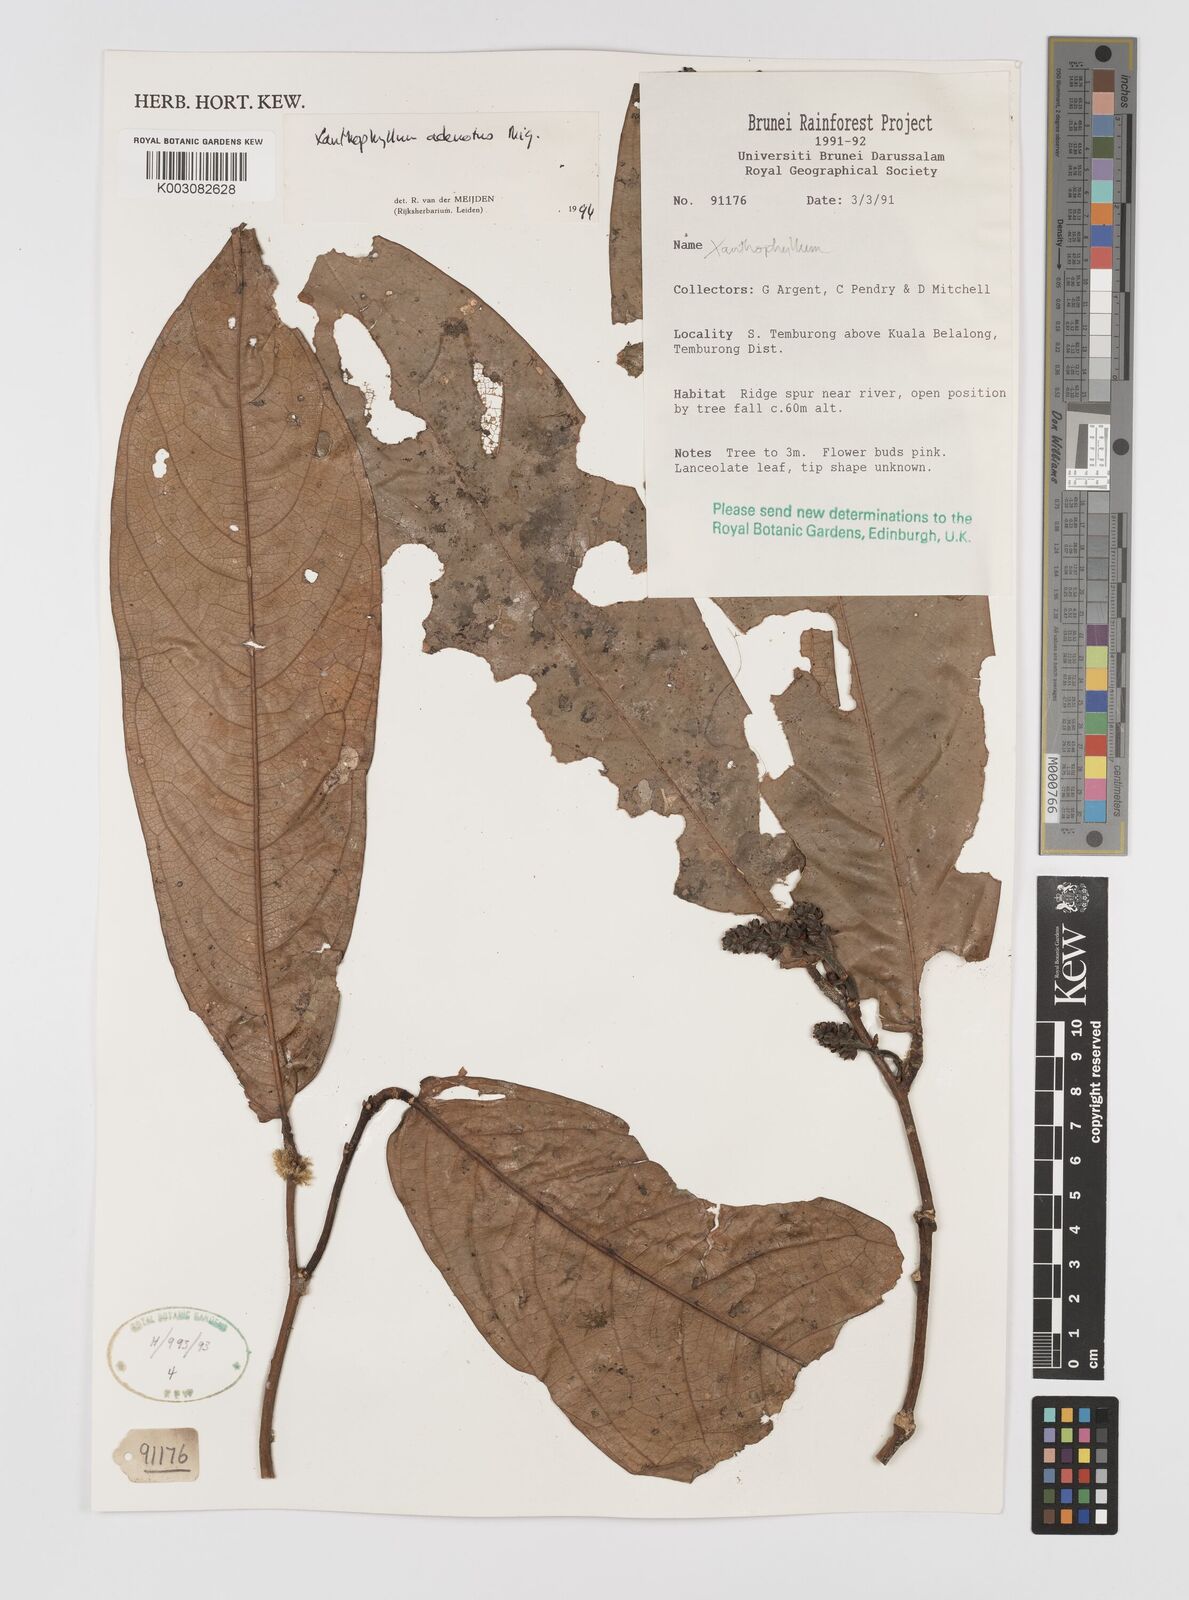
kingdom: Plantae
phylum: Tracheophyta
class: Magnoliopsida
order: Fabales
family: Polygalaceae
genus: Xanthophyllum
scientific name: Xanthophyllum adenotus
